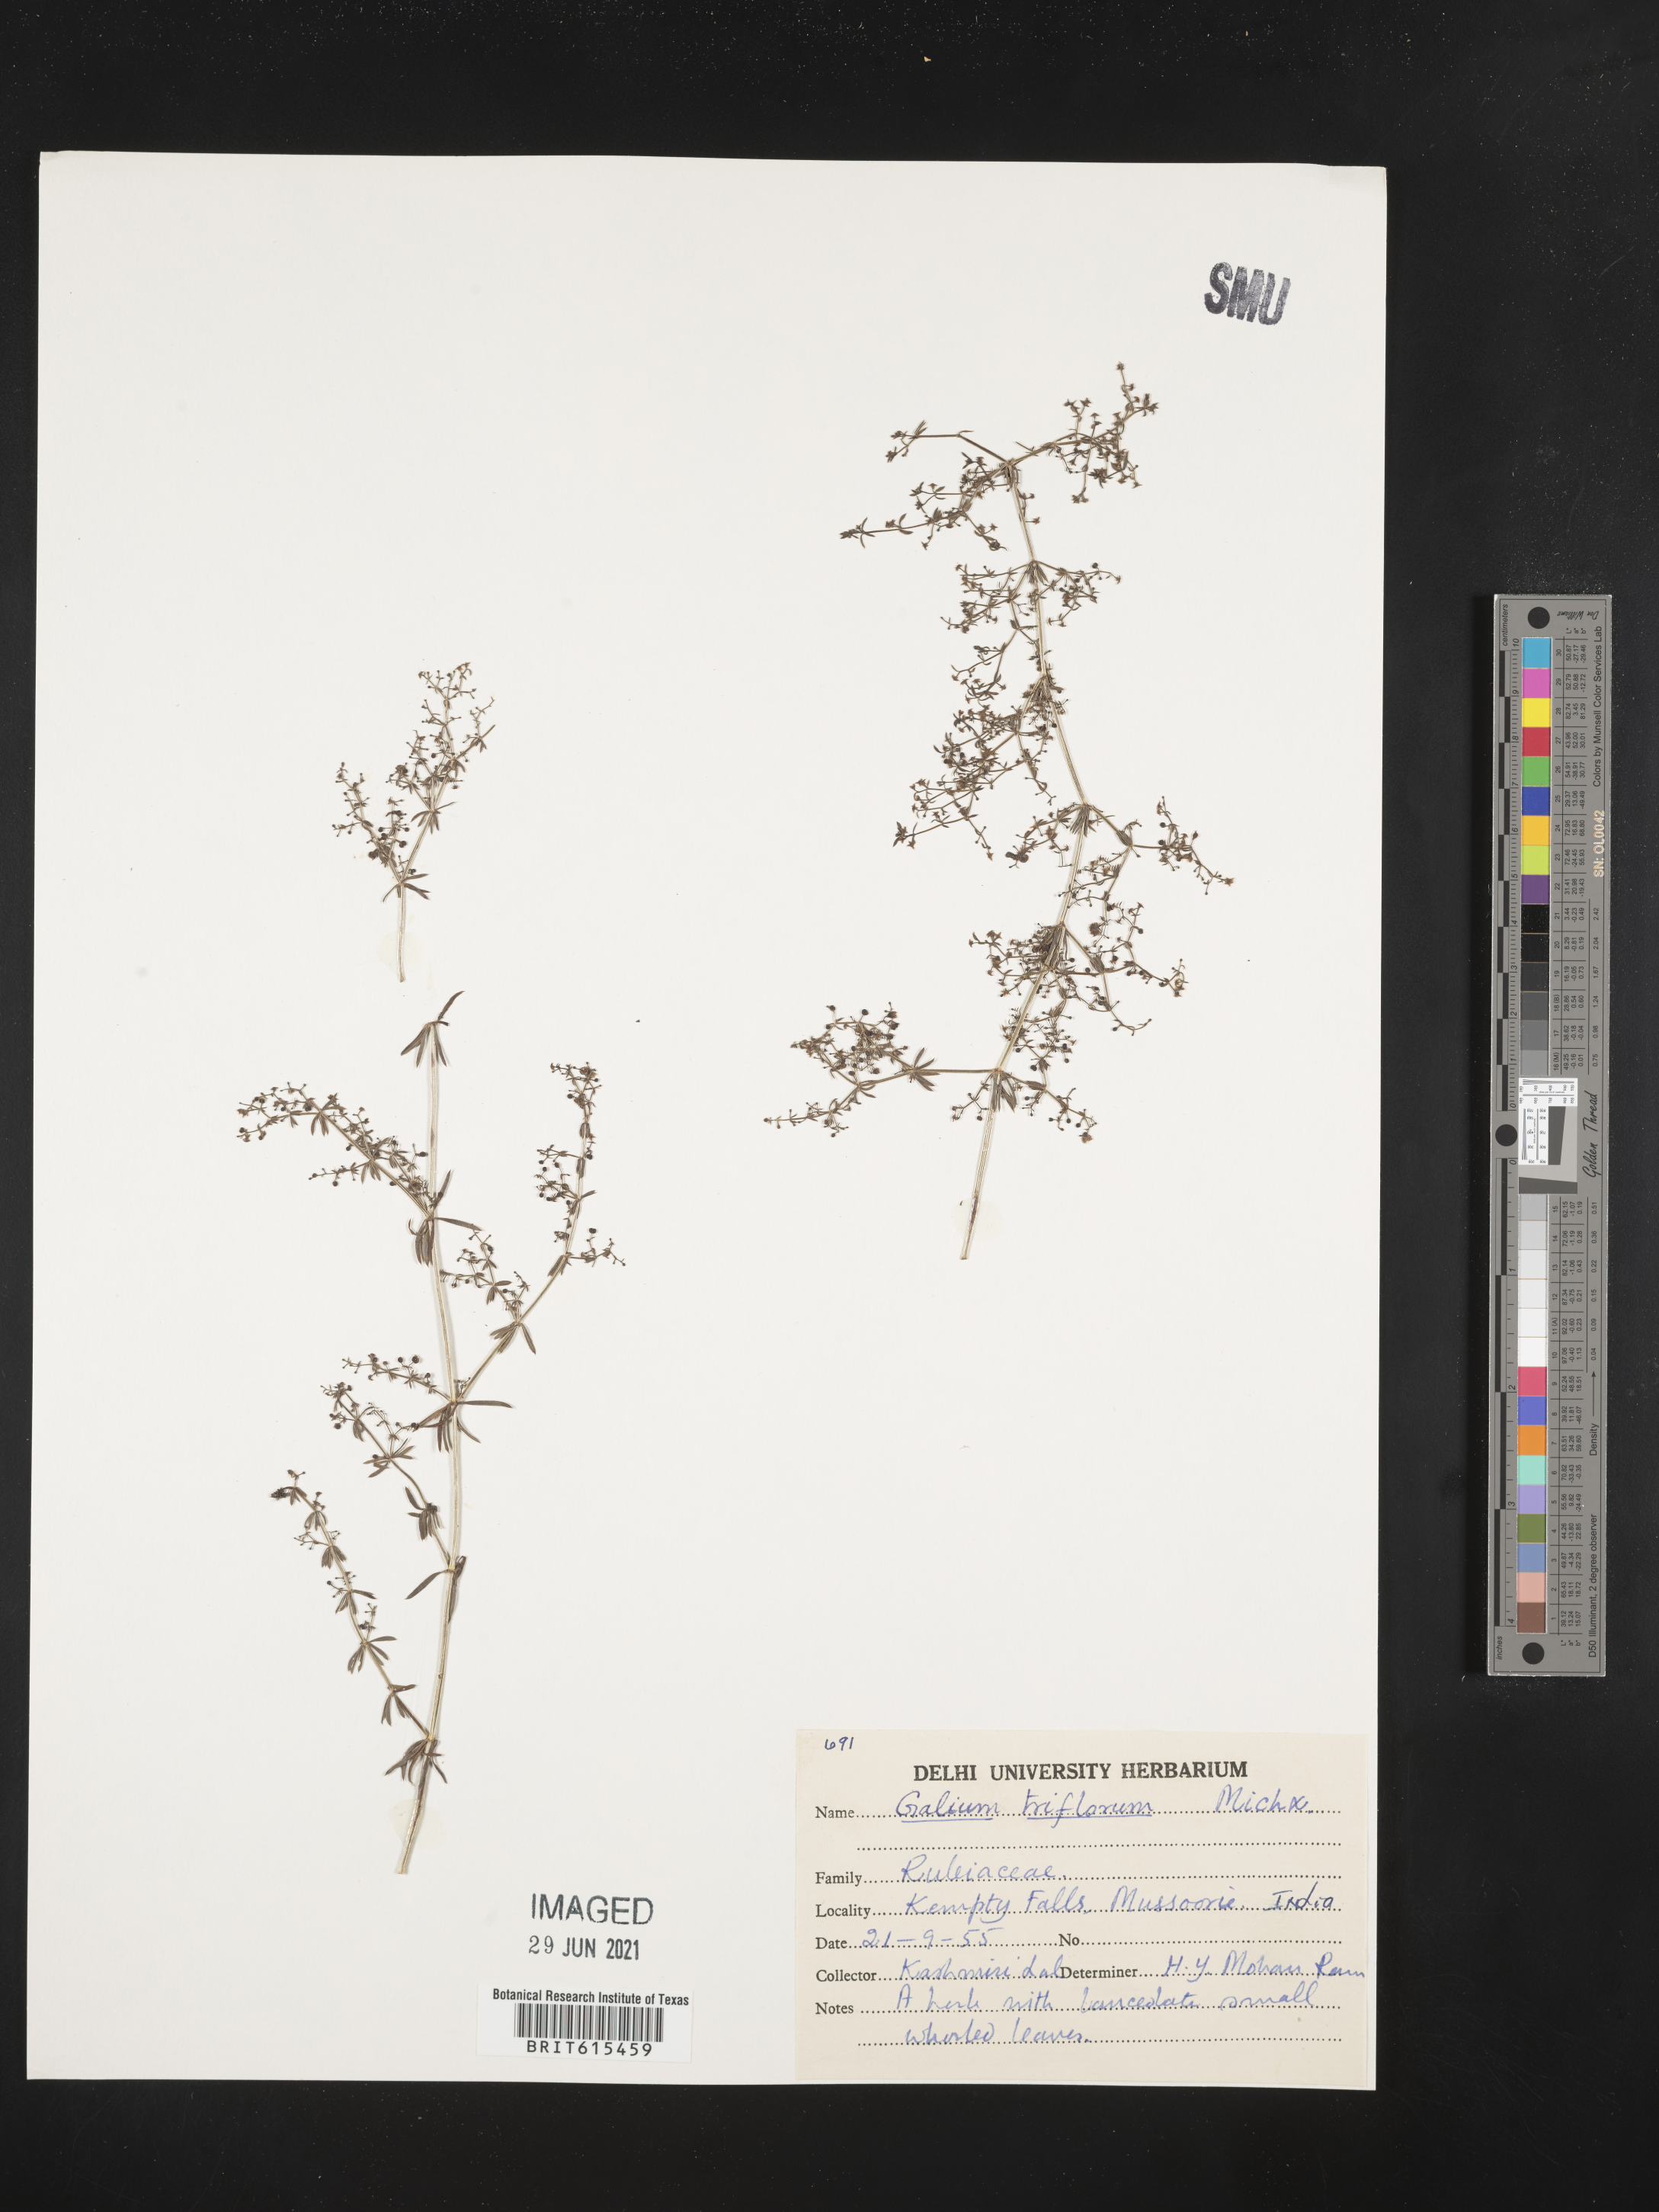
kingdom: Plantae
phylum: Tracheophyta
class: Magnoliopsida
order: Gentianales
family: Rubiaceae
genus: Galium
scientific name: Galium triflorum
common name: Fragrant bedstraw
